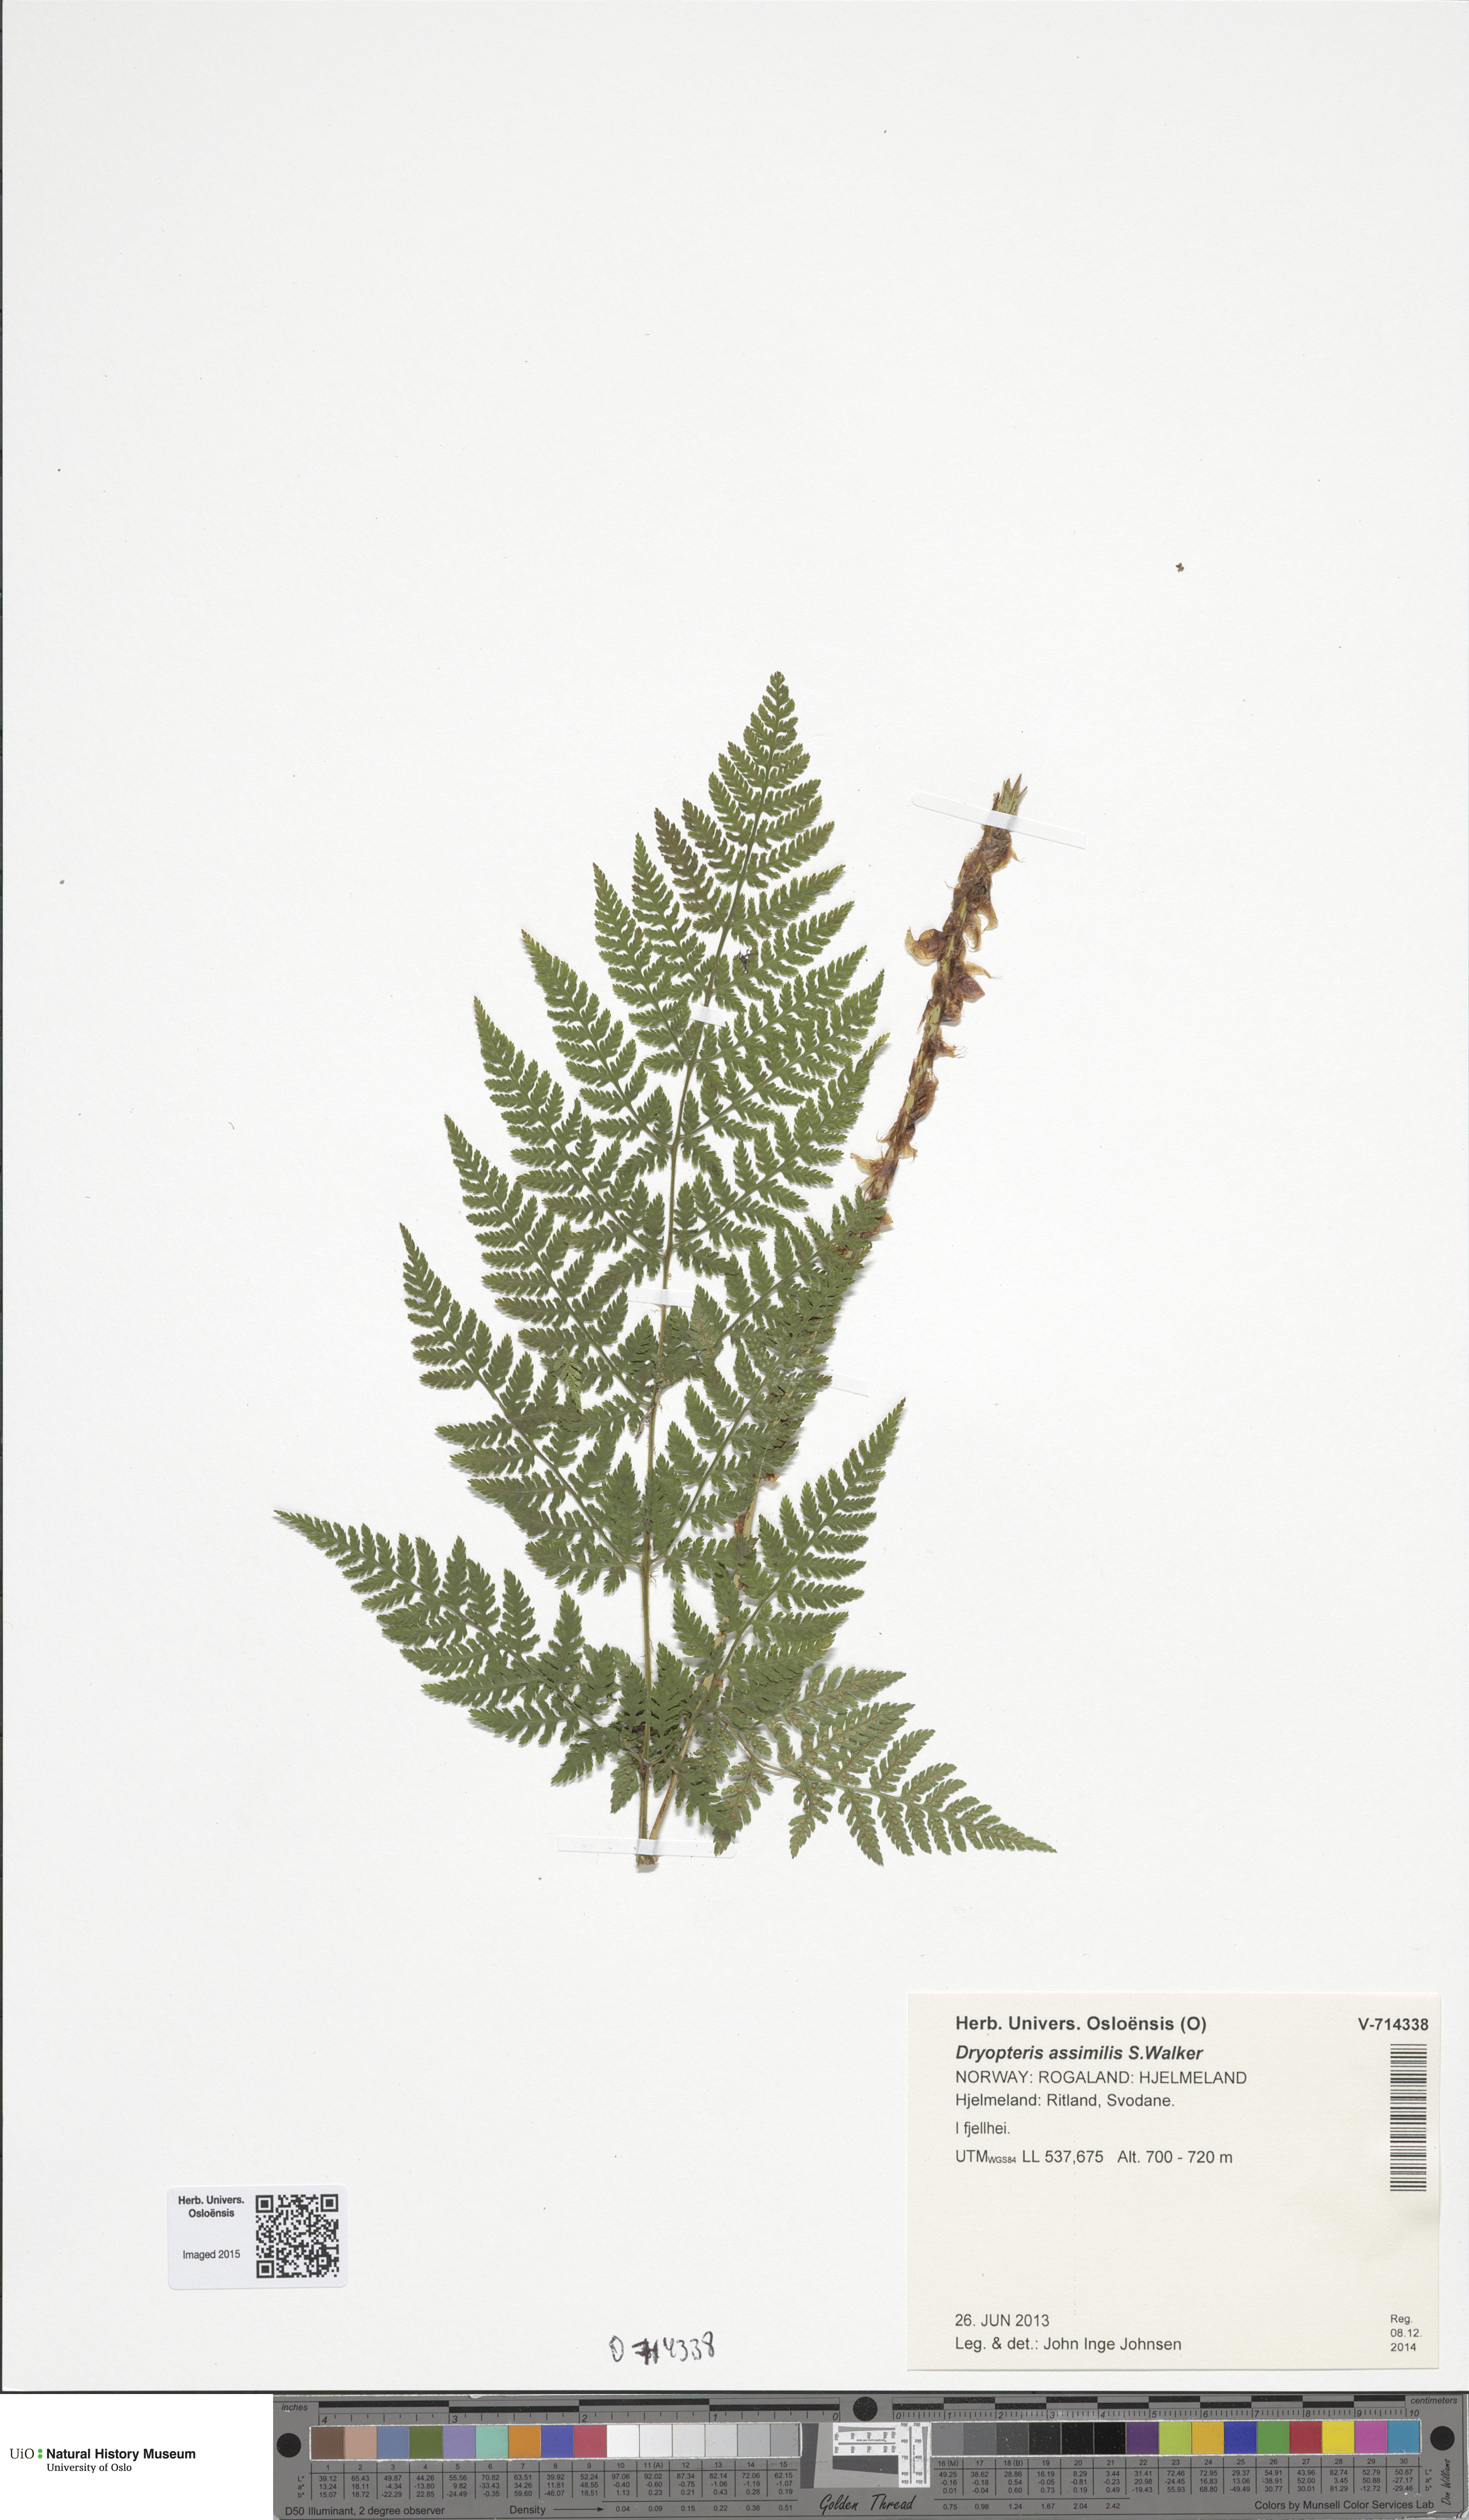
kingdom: Plantae
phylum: Tracheophyta
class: Polypodiopsida
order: Polypodiales
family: Dryopteridaceae
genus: Dryopteris
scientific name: Dryopteris expansa
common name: Northern buckler fern
